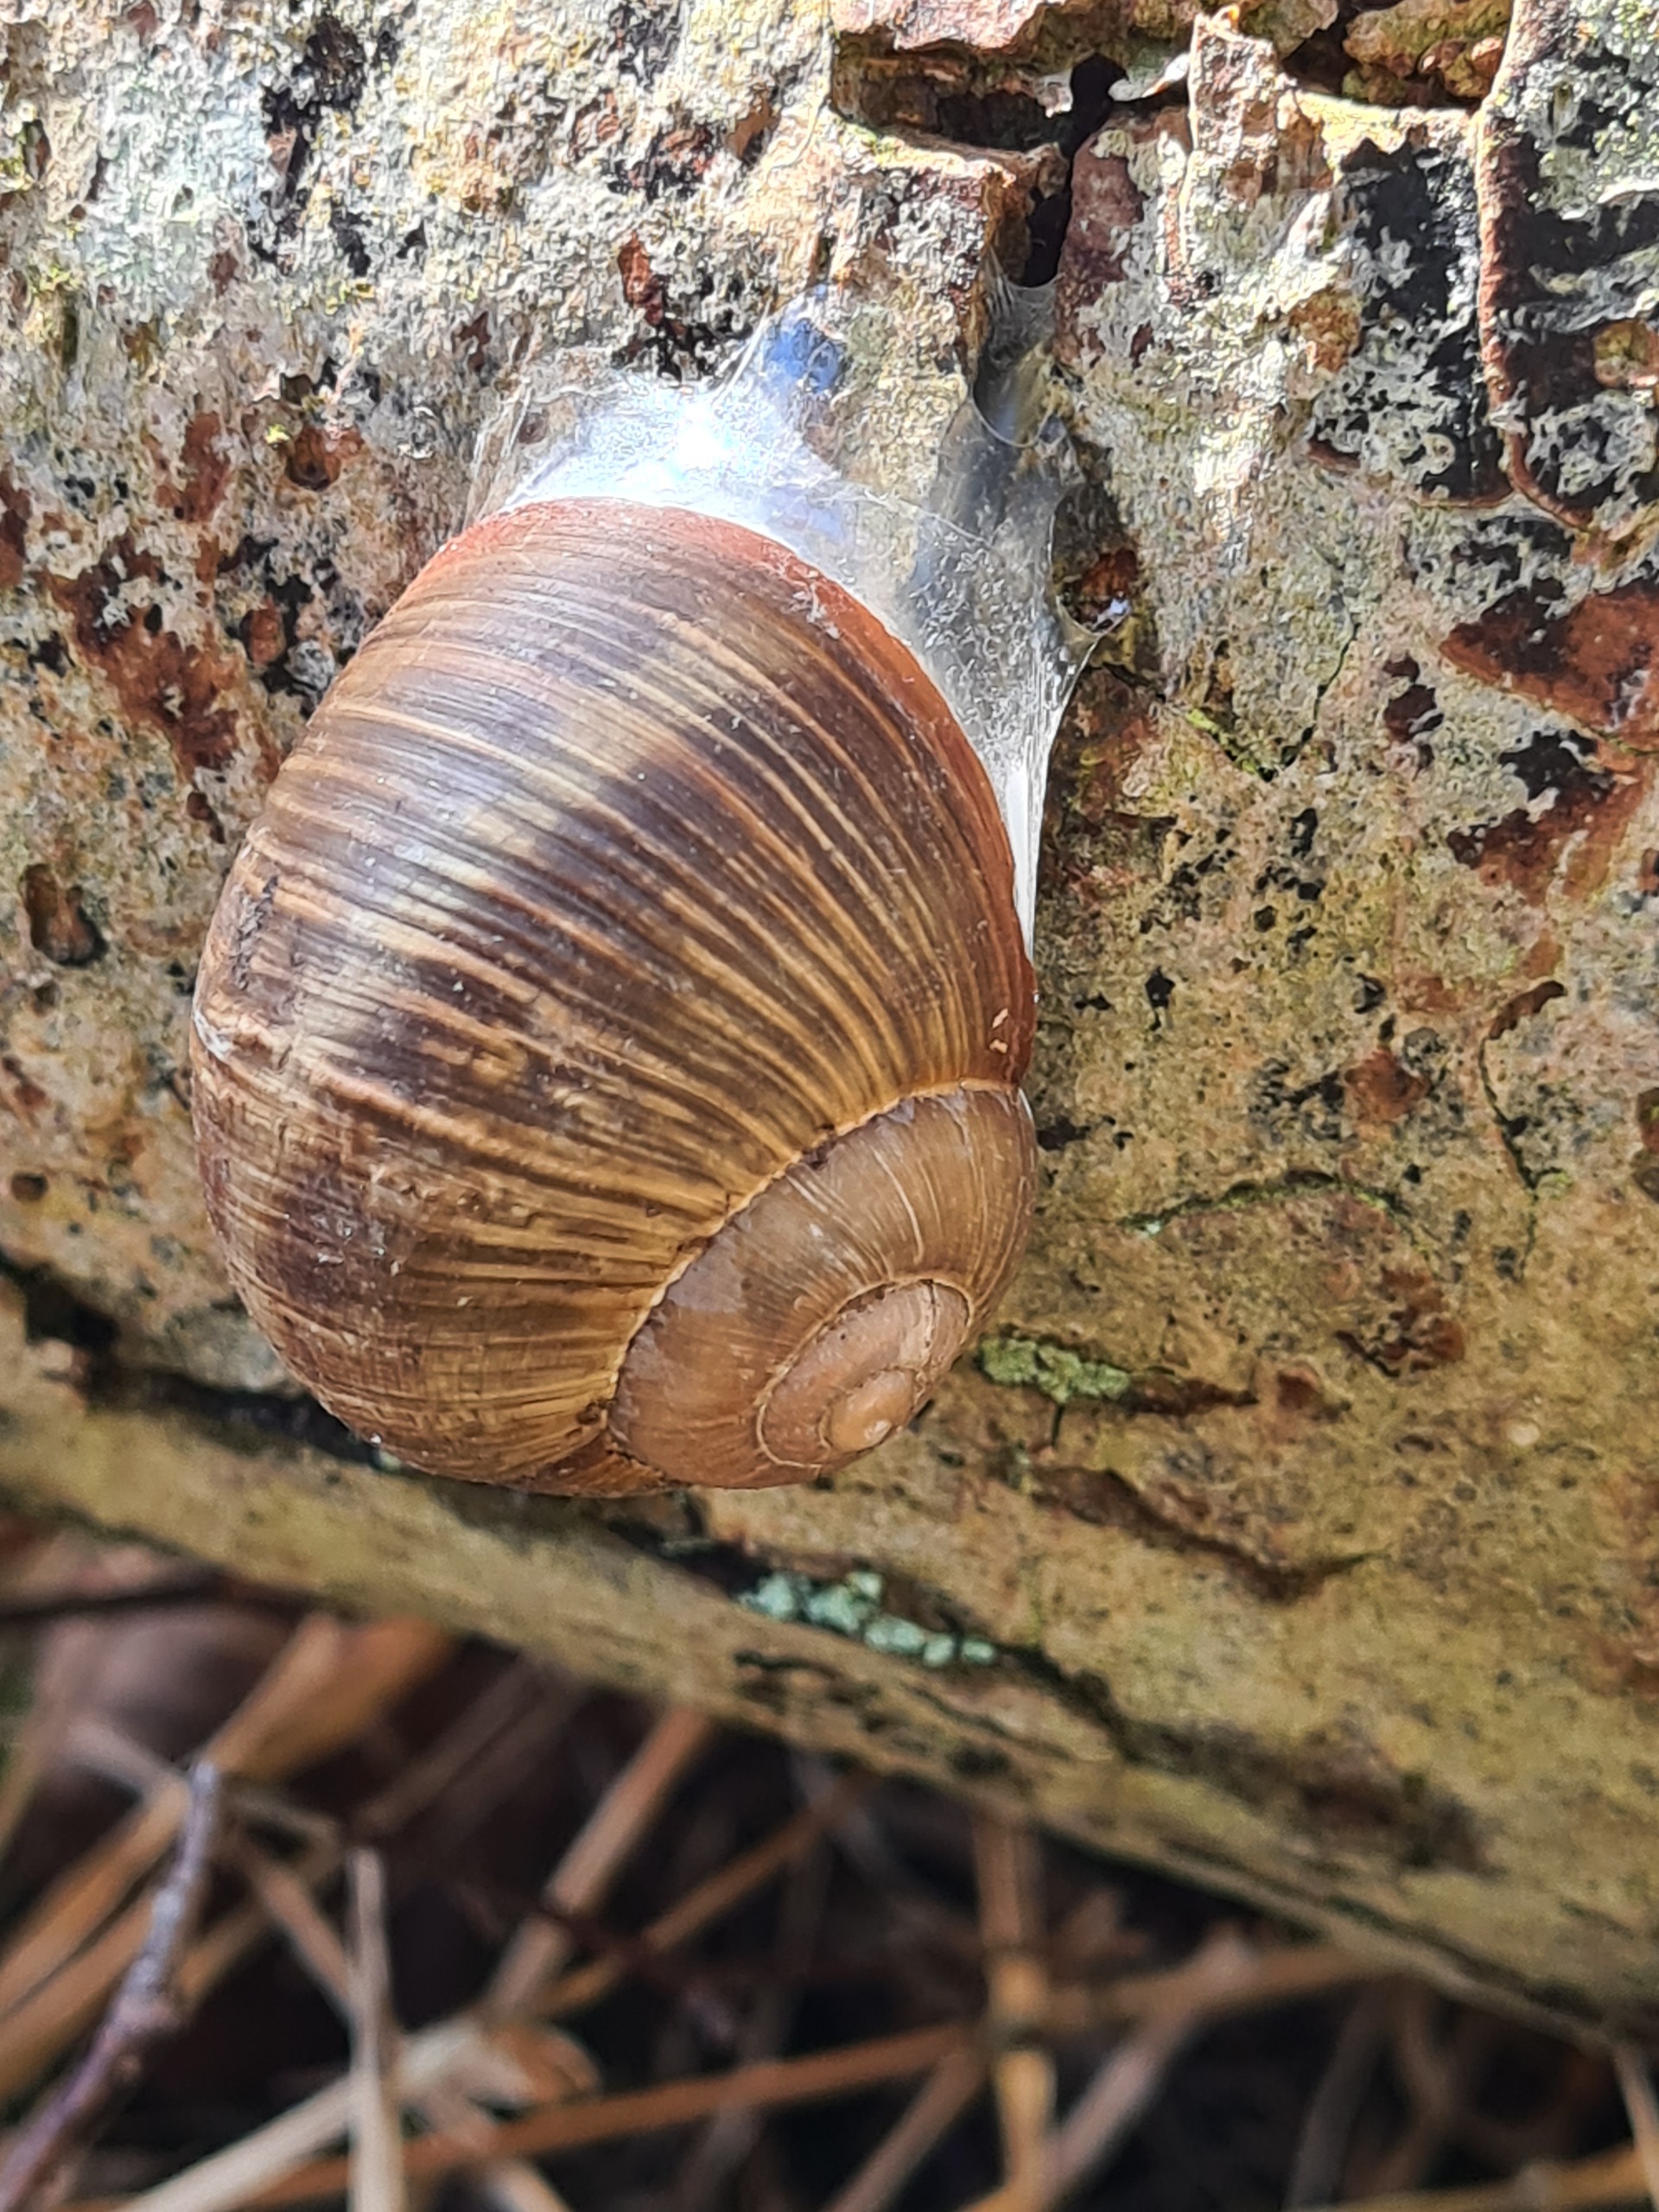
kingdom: Animalia
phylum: Mollusca
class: Gastropoda
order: Stylommatophora
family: Helicidae
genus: Helix
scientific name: Helix pomatia
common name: Vinbjergsnegl
